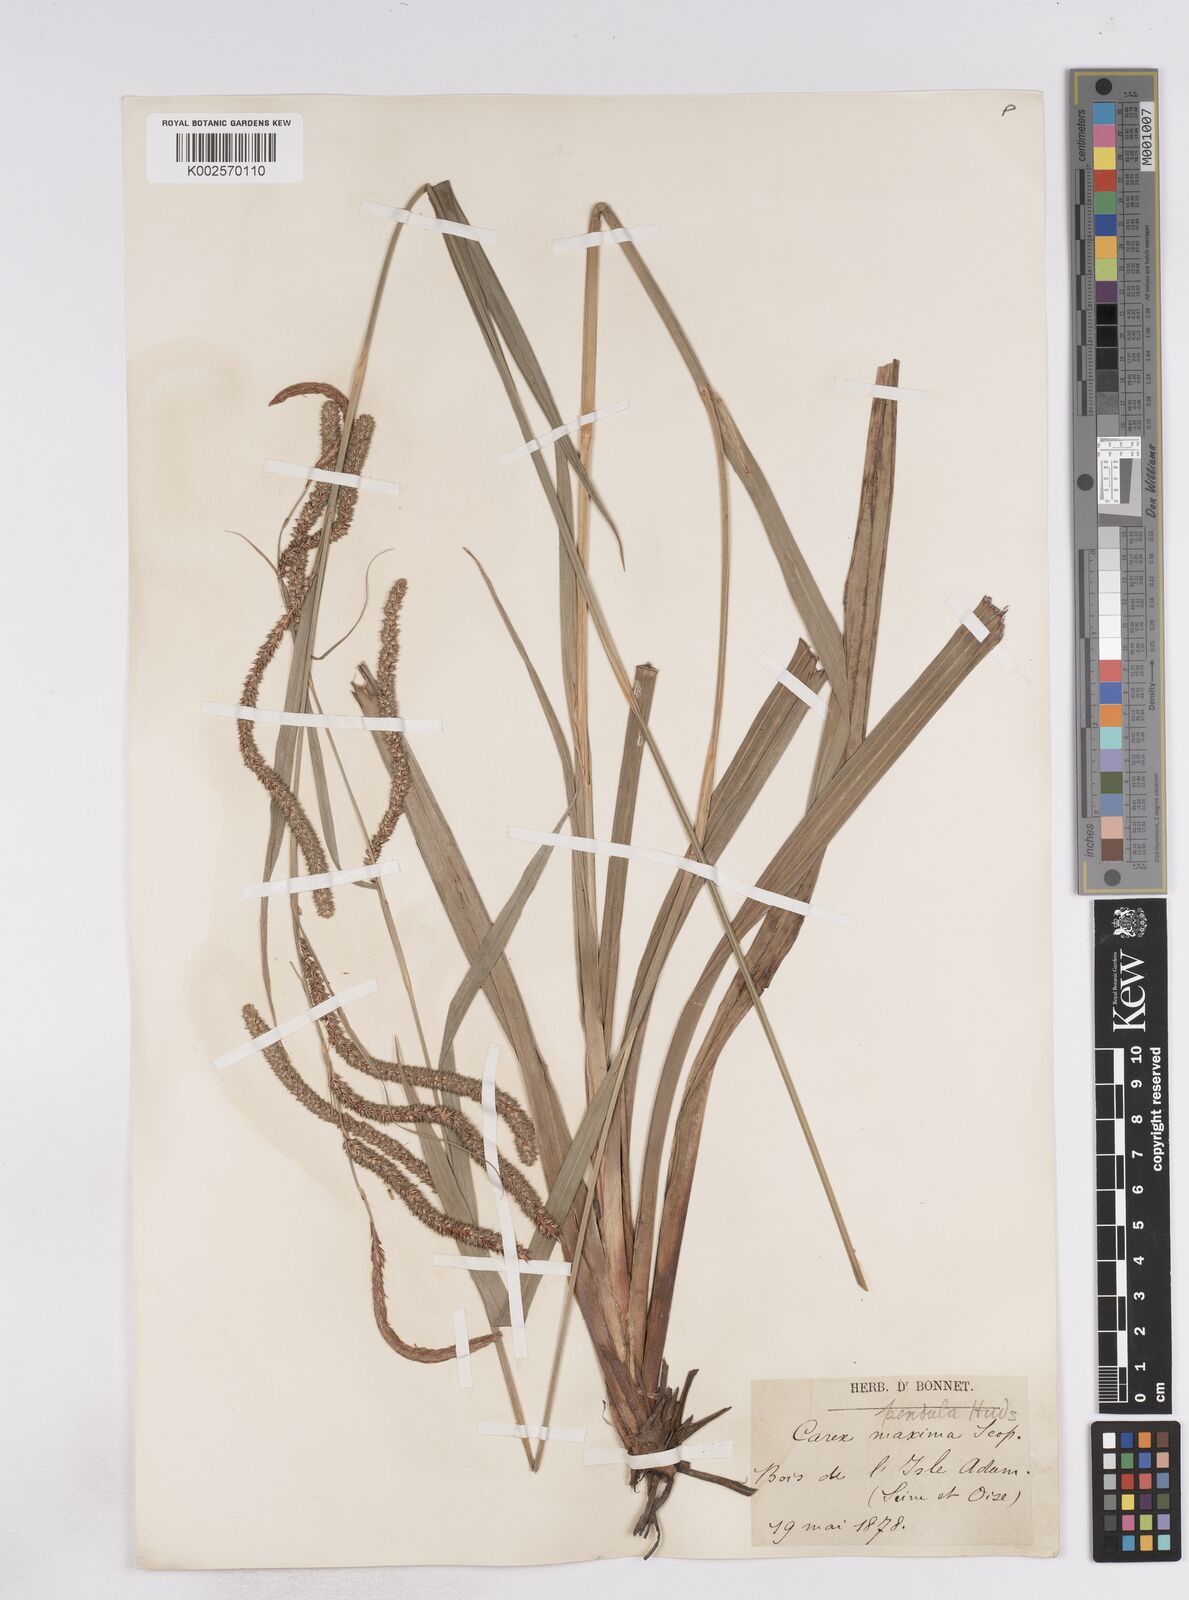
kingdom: Plantae
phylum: Tracheophyta
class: Liliopsida
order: Poales
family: Cyperaceae
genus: Carex
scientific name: Carex pendula
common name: Pendulous sedge
